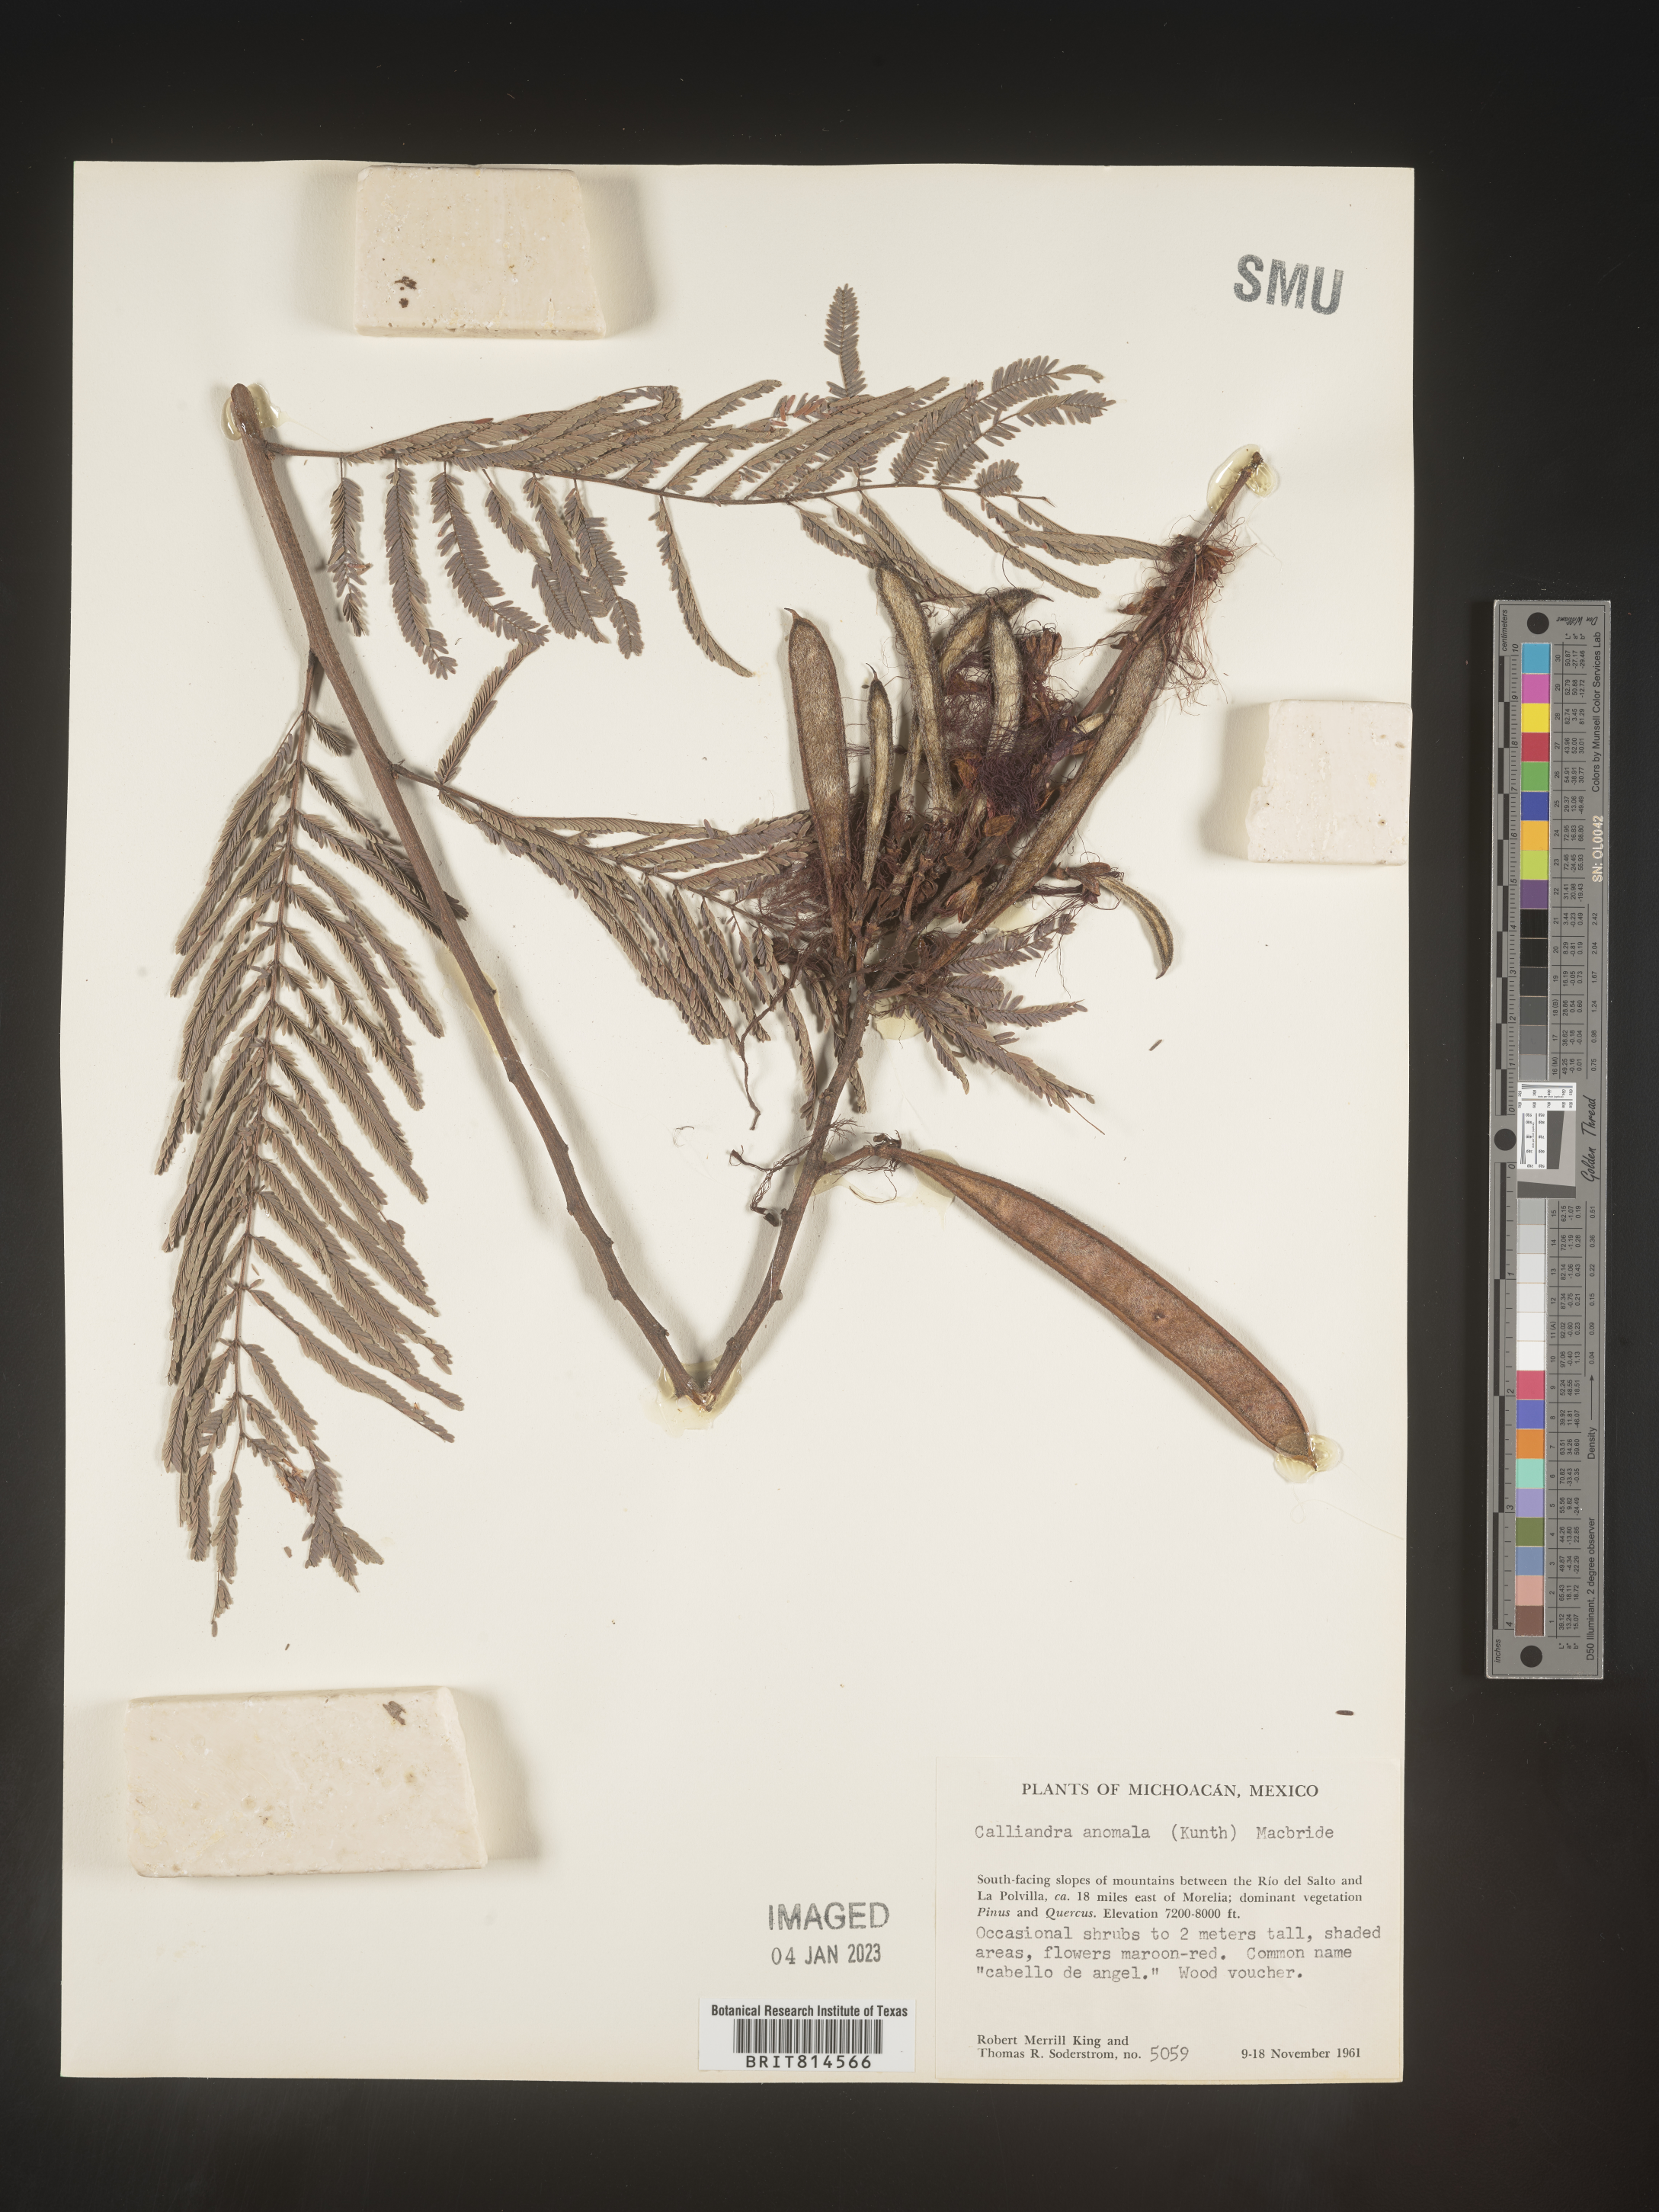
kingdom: Plantae
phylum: Tracheophyta
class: Magnoliopsida
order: Fabales
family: Fabaceae
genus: Calliandra
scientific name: Calliandra
